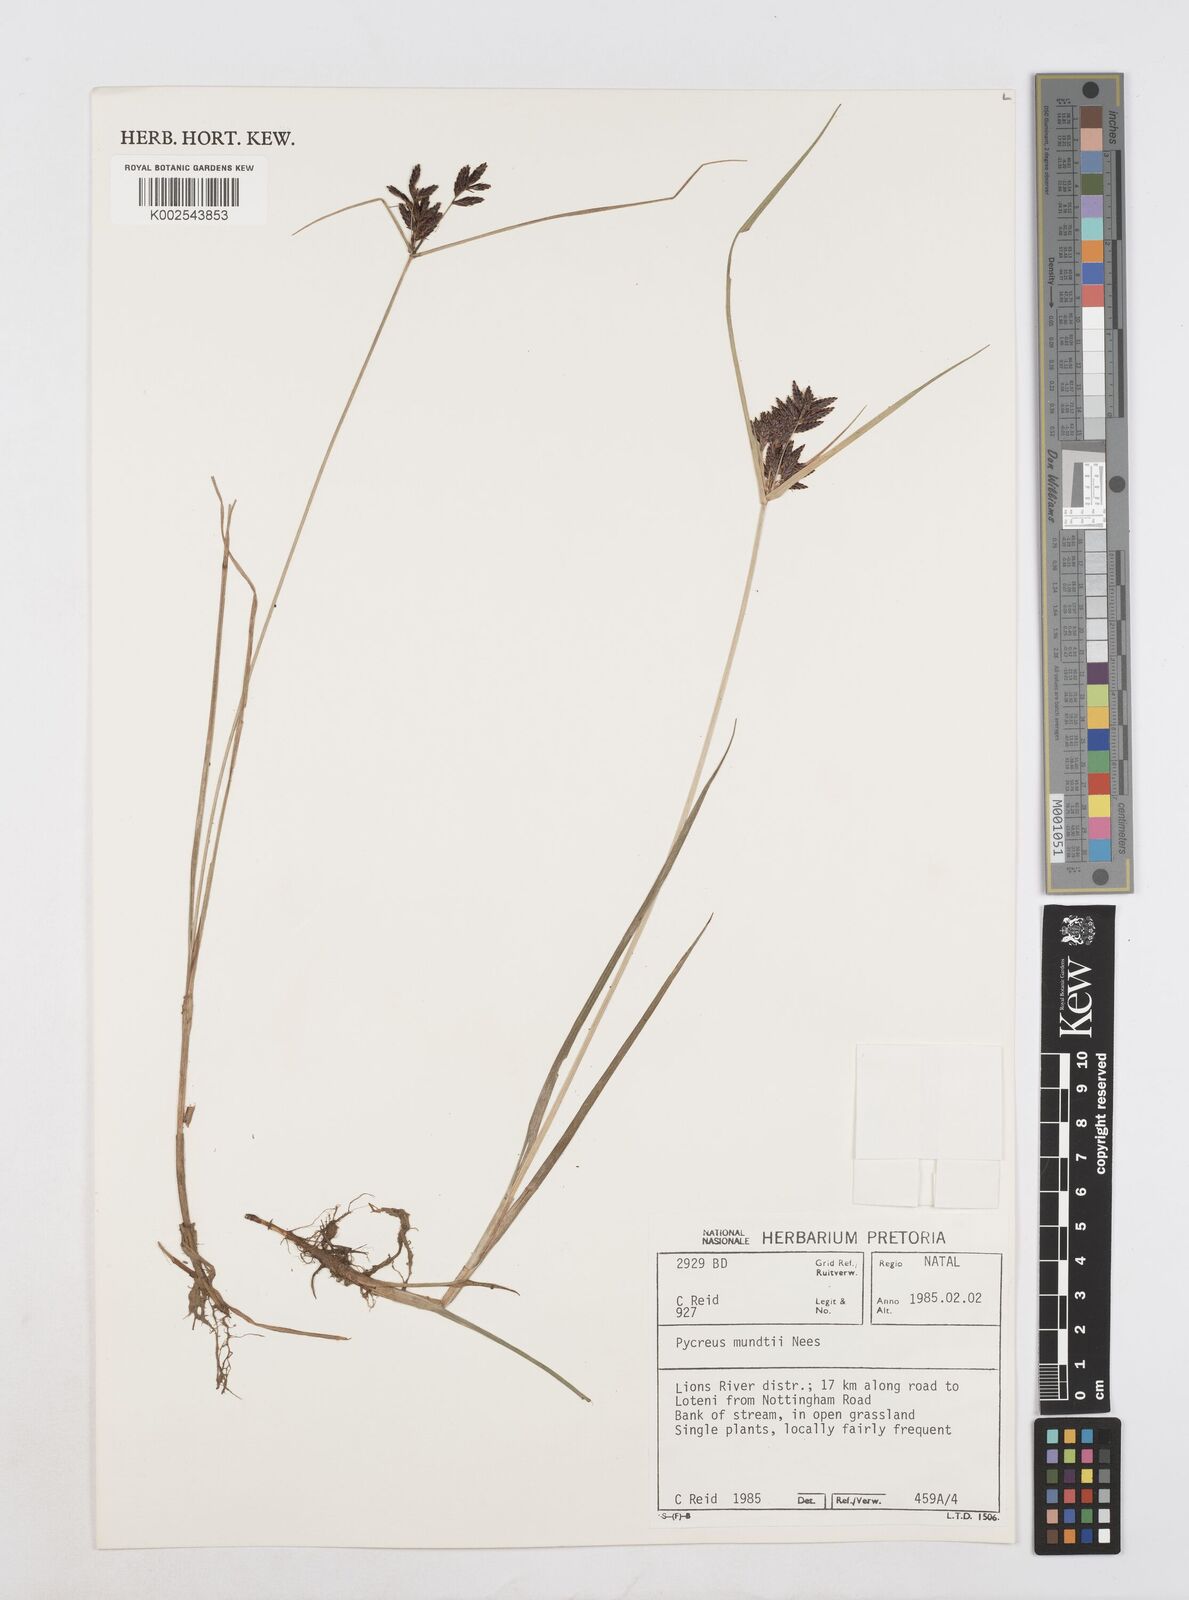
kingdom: Plantae
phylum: Tracheophyta
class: Liliopsida
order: Poales
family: Cyperaceae
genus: Cyperus
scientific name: Cyperus mundii
